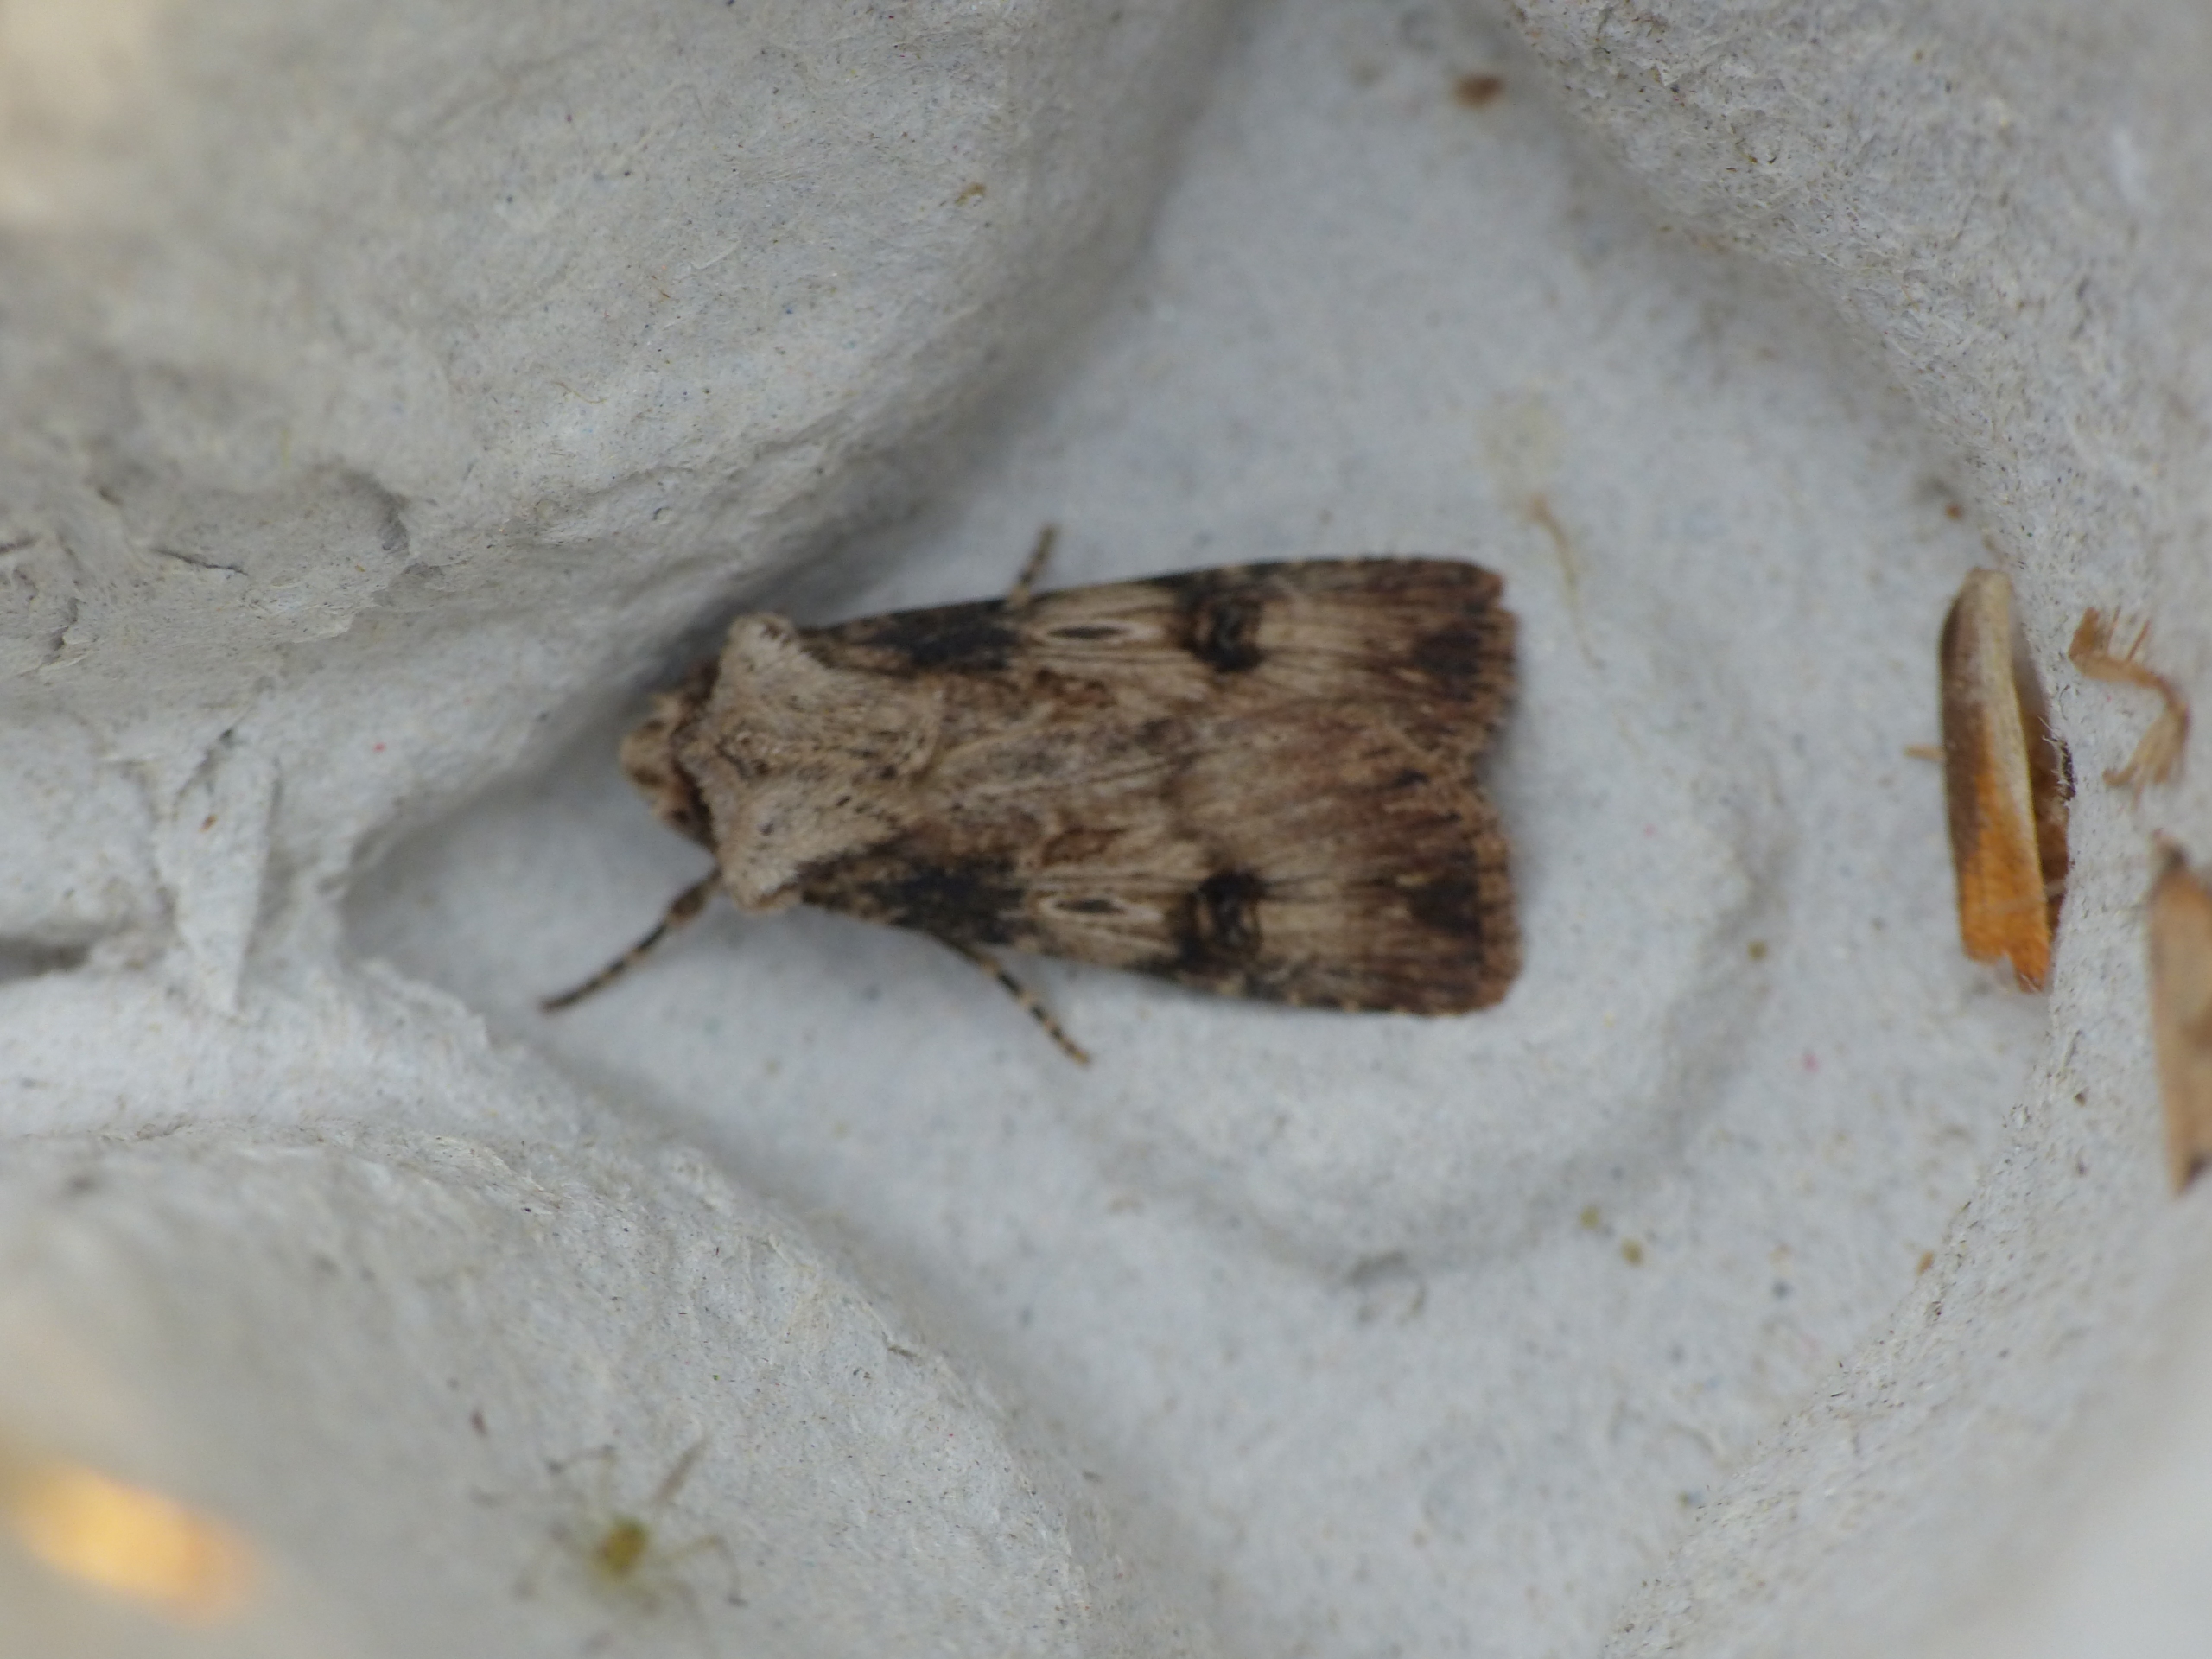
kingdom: Animalia
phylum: Arthropoda
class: Insecta
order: Lepidoptera
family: Noctuidae
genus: Agrotis
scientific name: Agrotis puta
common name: Frønnet landmand
